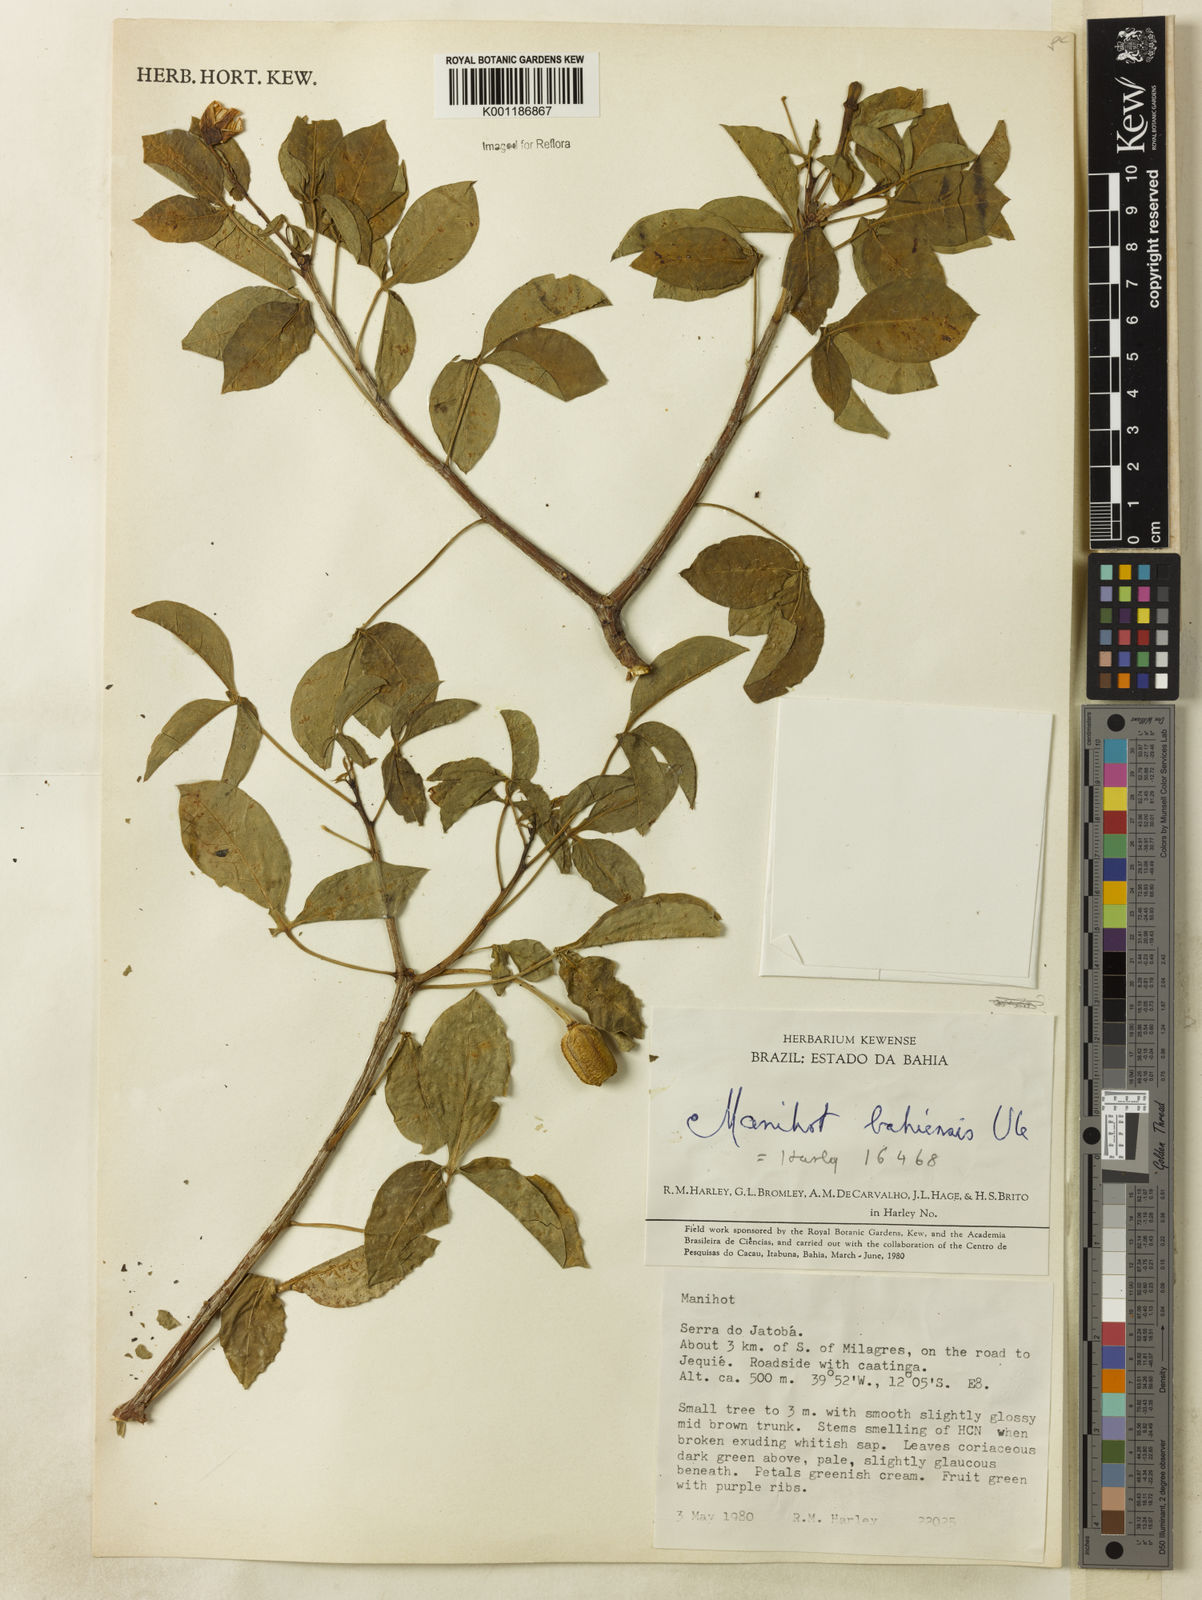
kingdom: Plantae
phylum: Tracheophyta
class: Magnoliopsida
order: Malpighiales
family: Euphorbiaceae
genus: Manihot
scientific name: Manihot caerulescens
